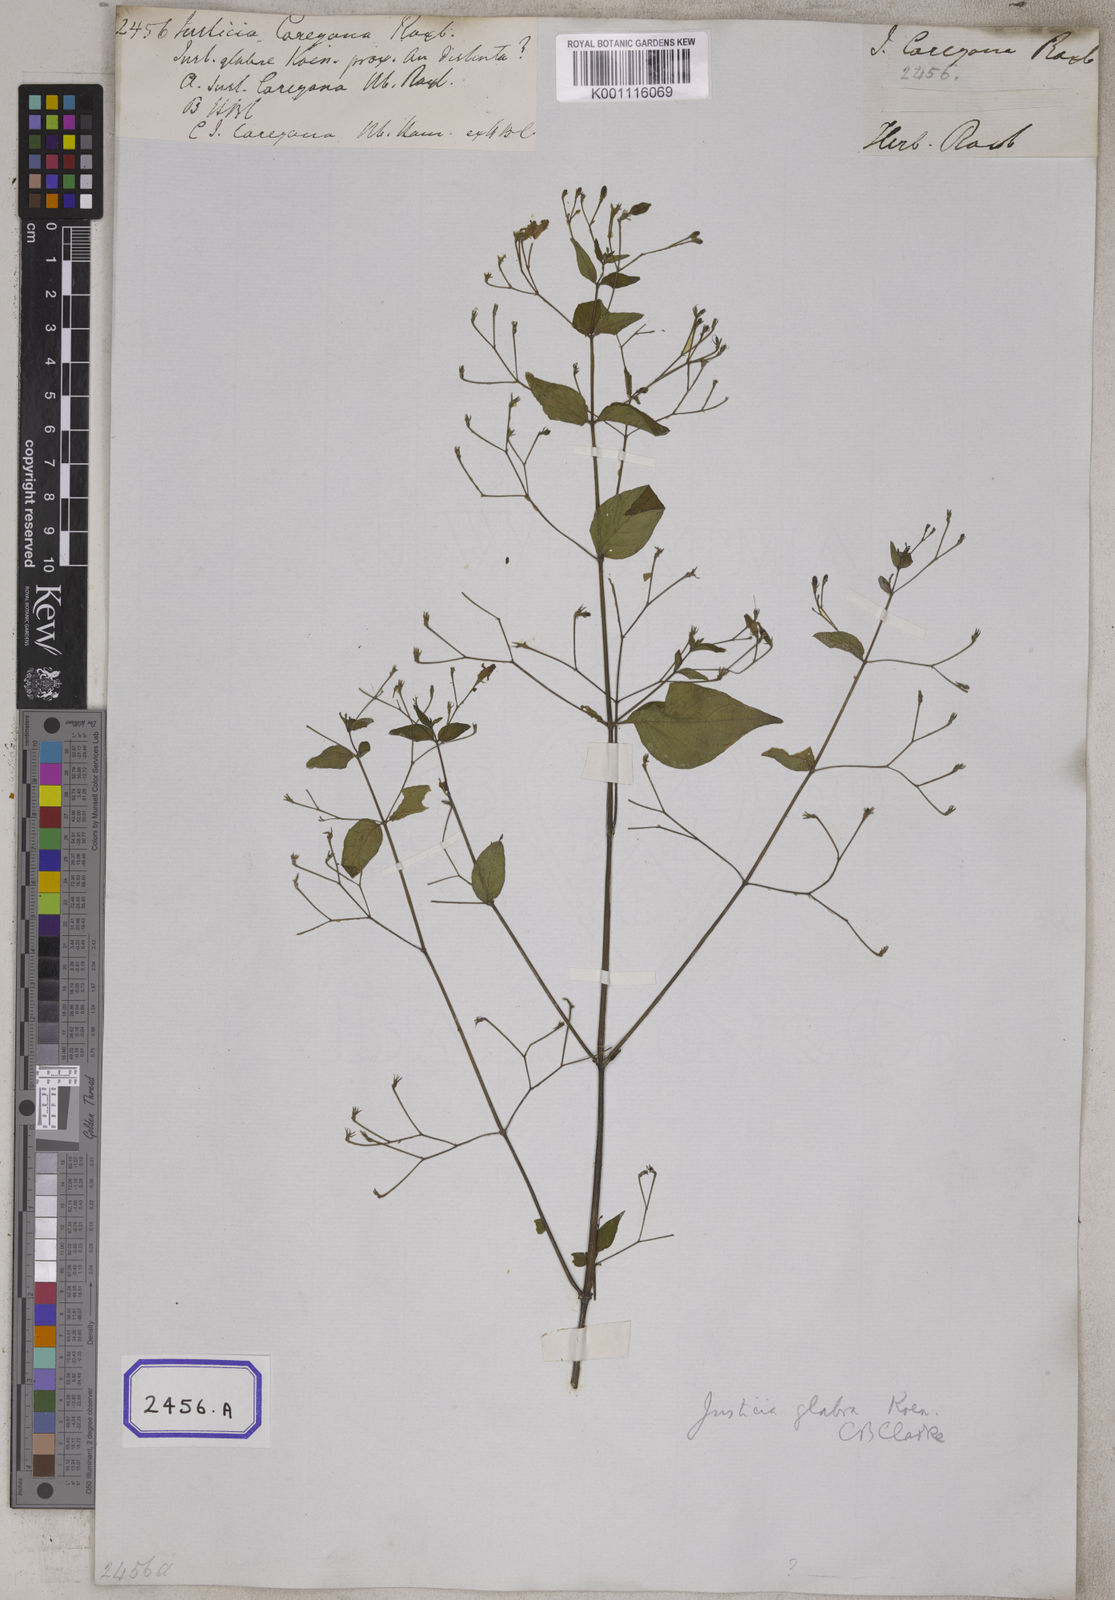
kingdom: Plantae
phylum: Tracheophyta
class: Magnoliopsida
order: Lamiales
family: Acanthaceae
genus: Justicia
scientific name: Justicia careyana
